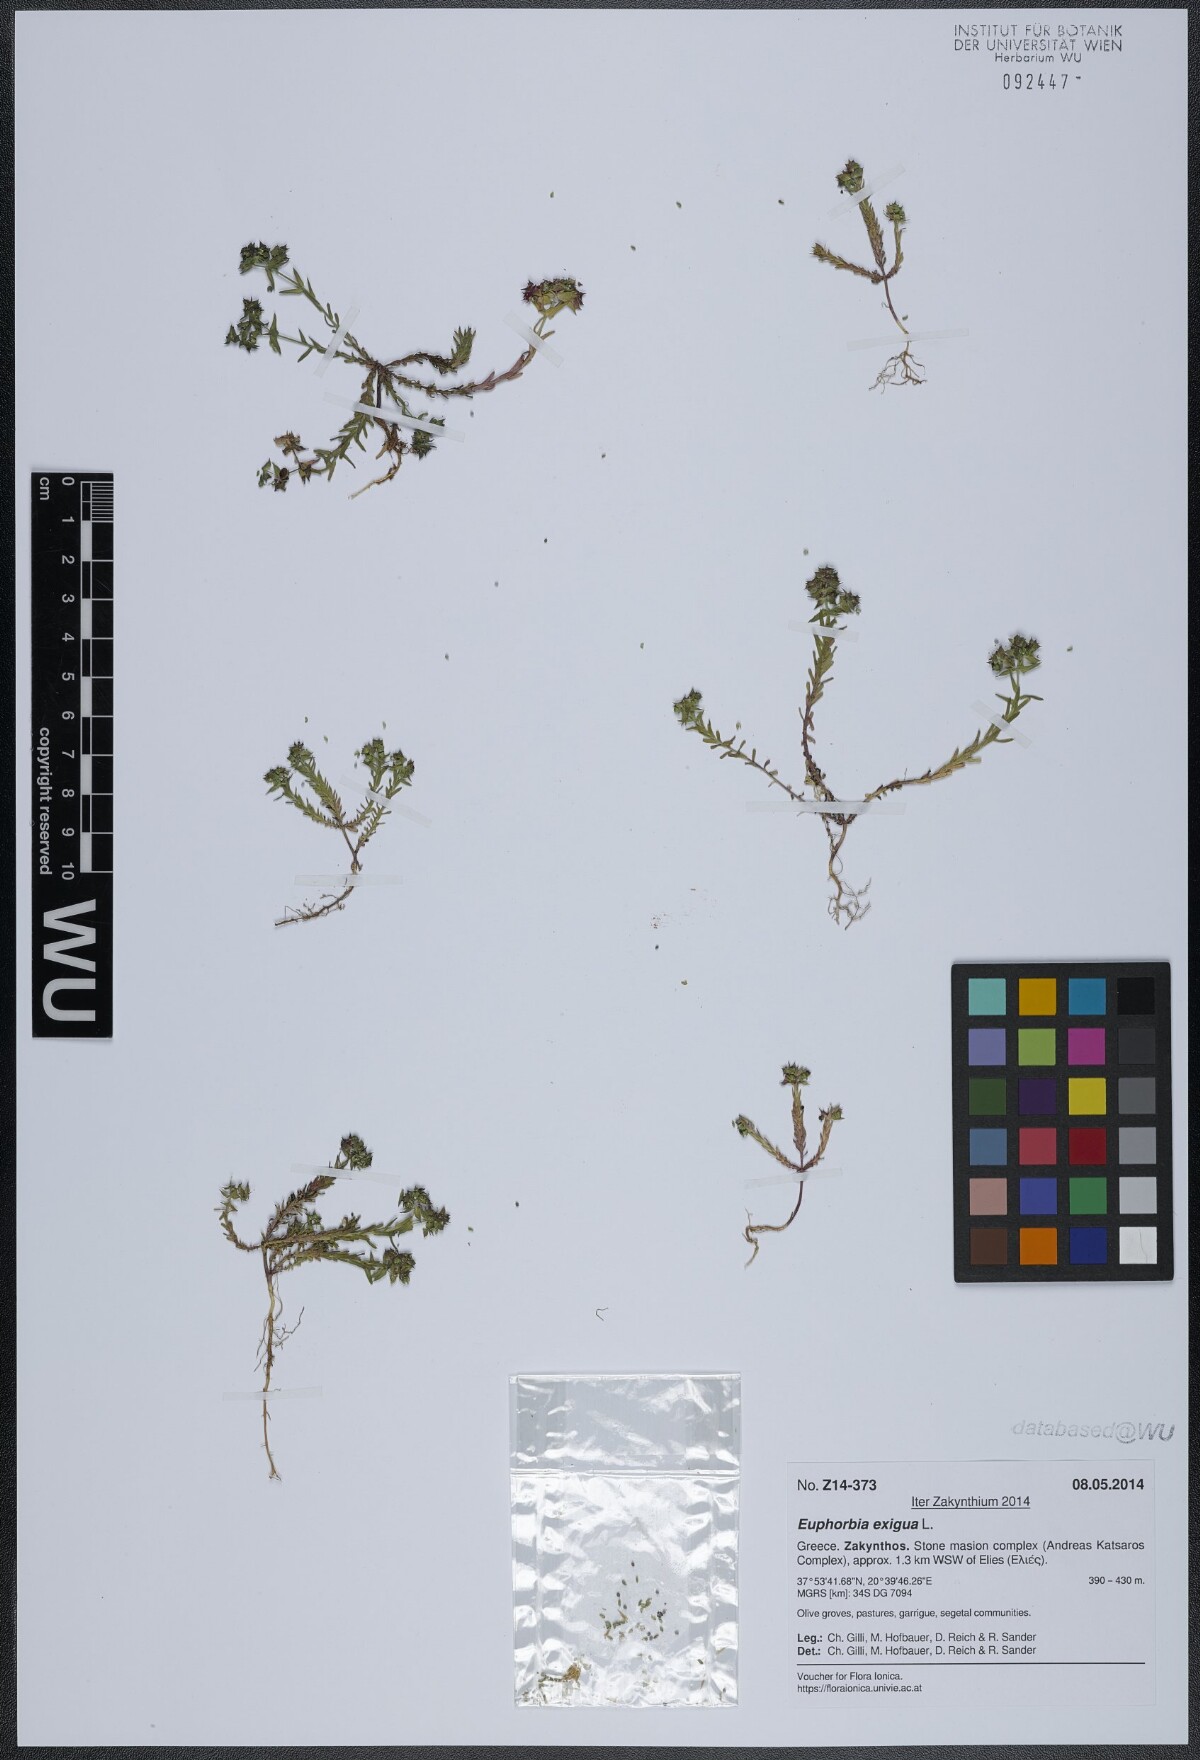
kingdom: Plantae
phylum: Tracheophyta
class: Magnoliopsida
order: Malpighiales
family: Euphorbiaceae
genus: Euphorbia
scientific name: Euphorbia exigua
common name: Dwarf spurge
